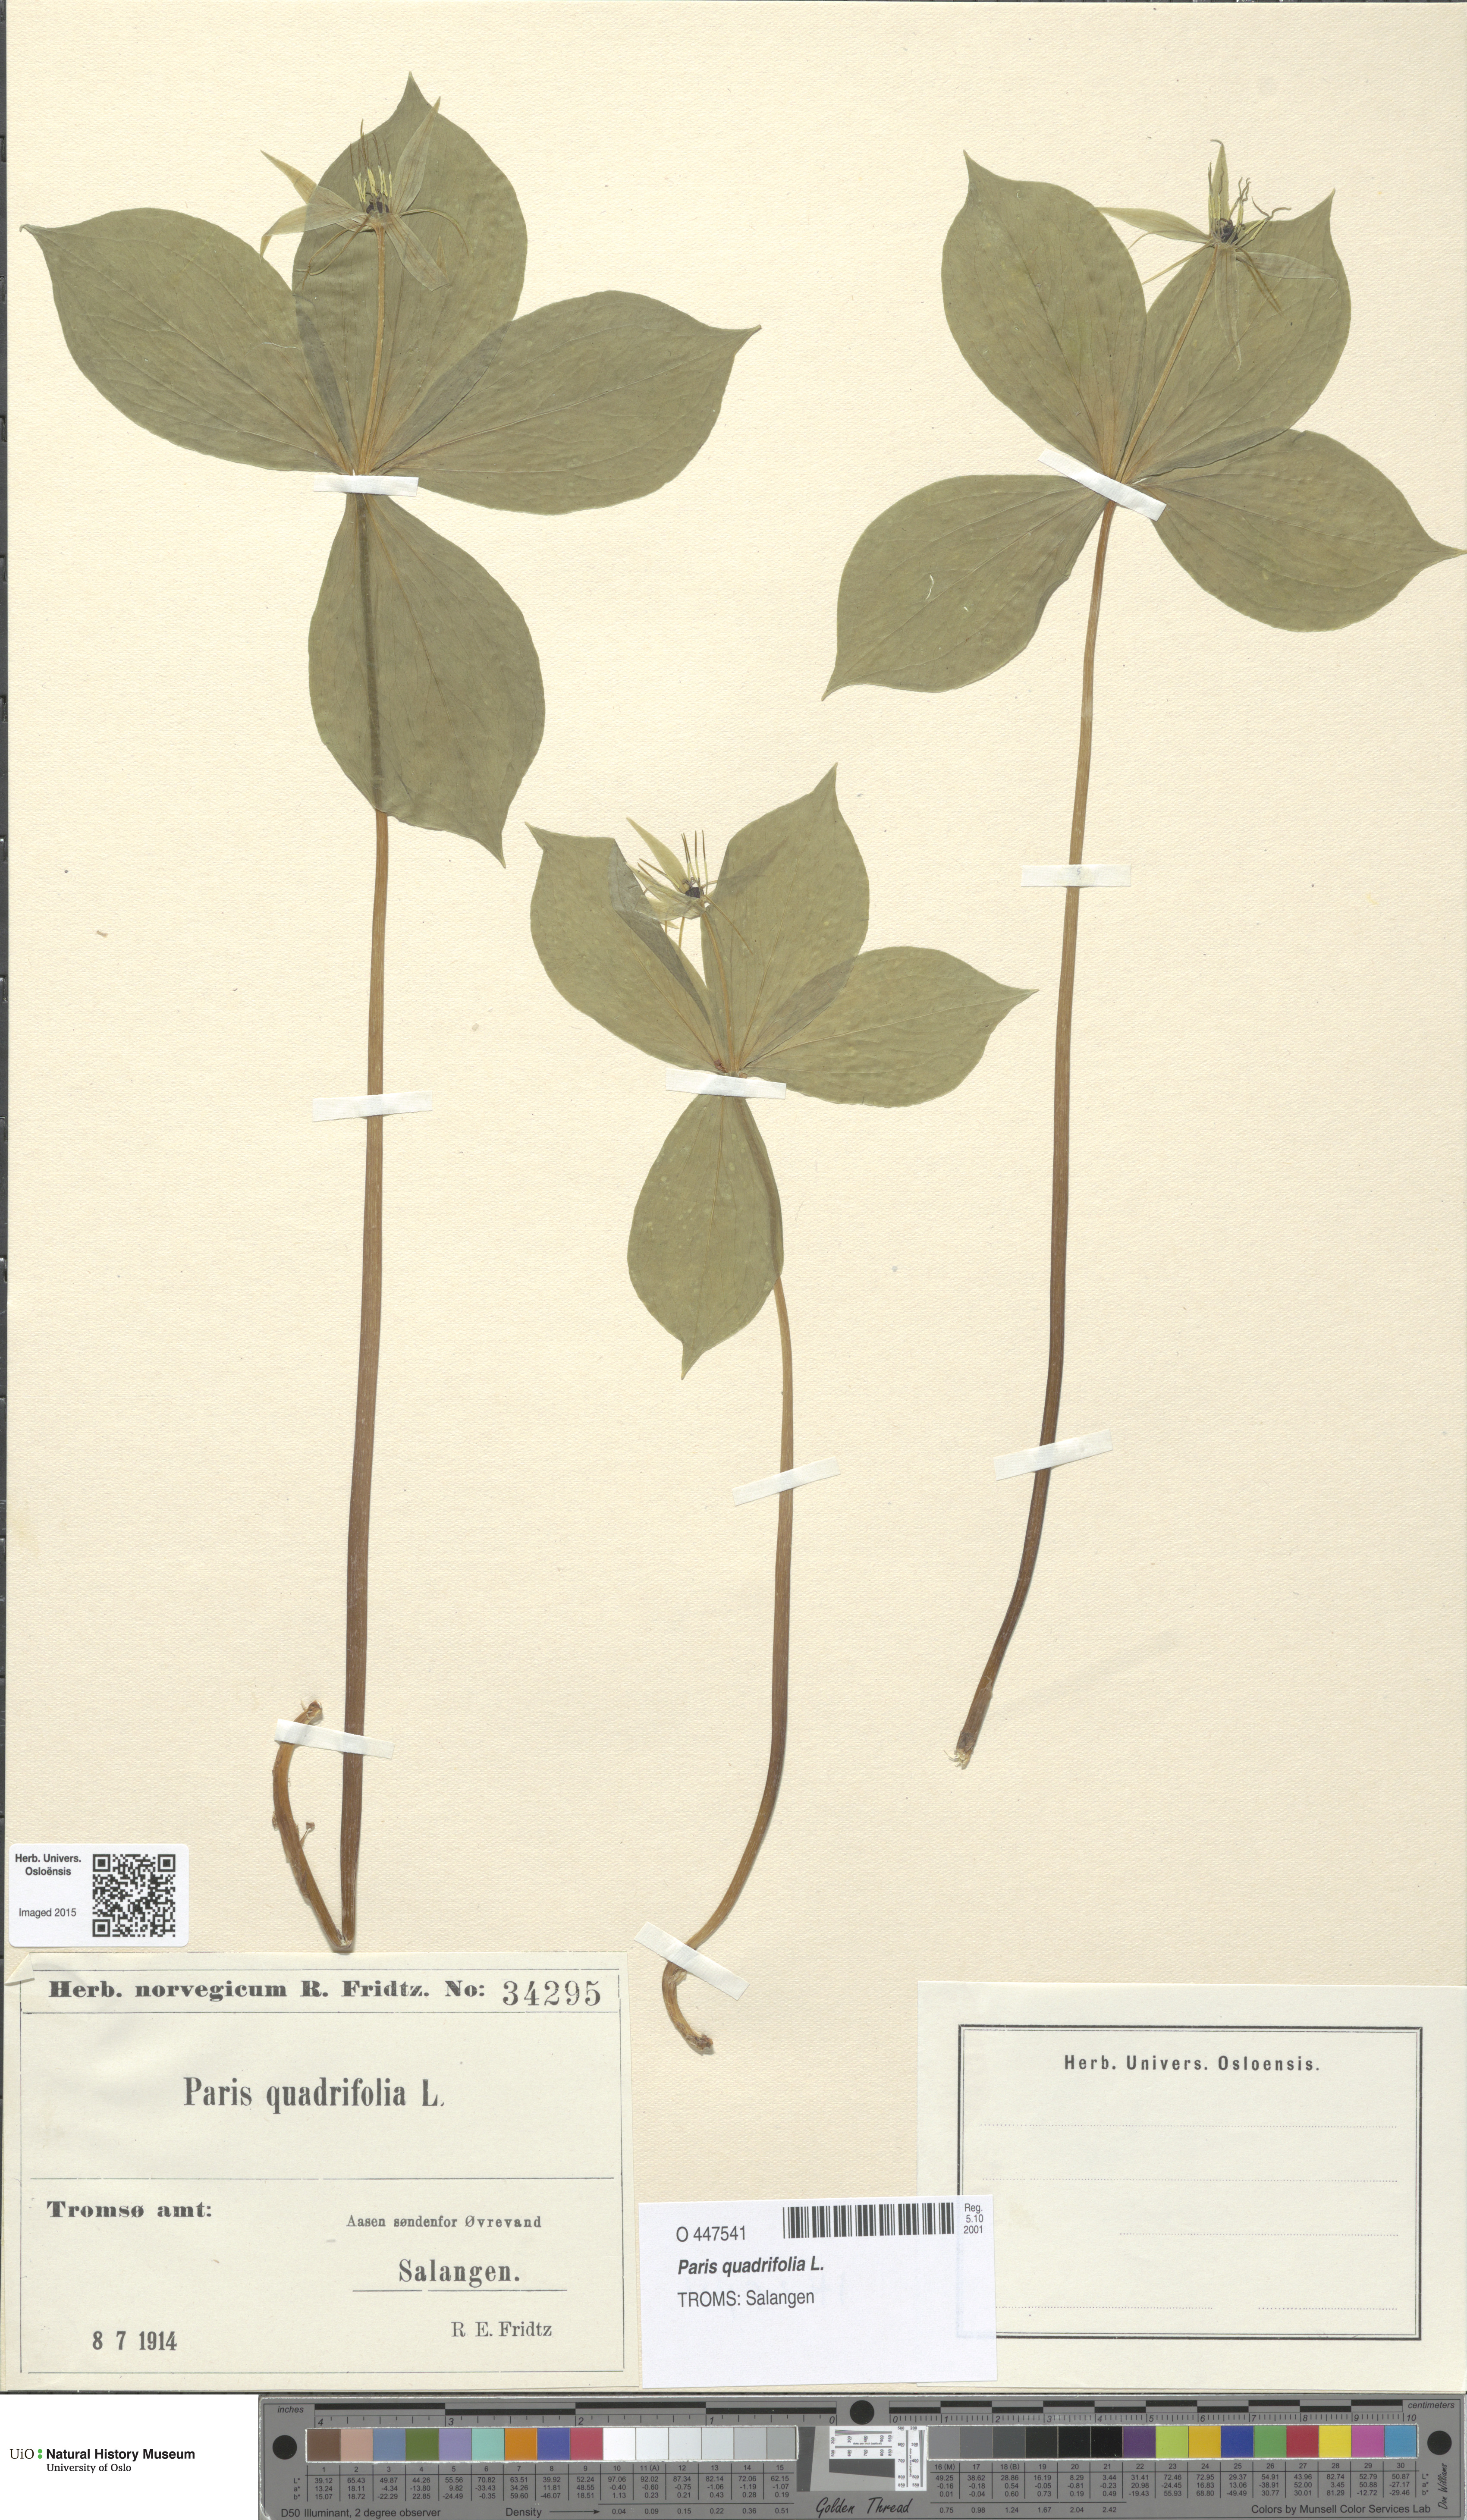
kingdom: Plantae
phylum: Tracheophyta
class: Liliopsida
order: Liliales
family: Melanthiaceae
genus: Paris
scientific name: Paris quadrifolia
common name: Herb-paris
